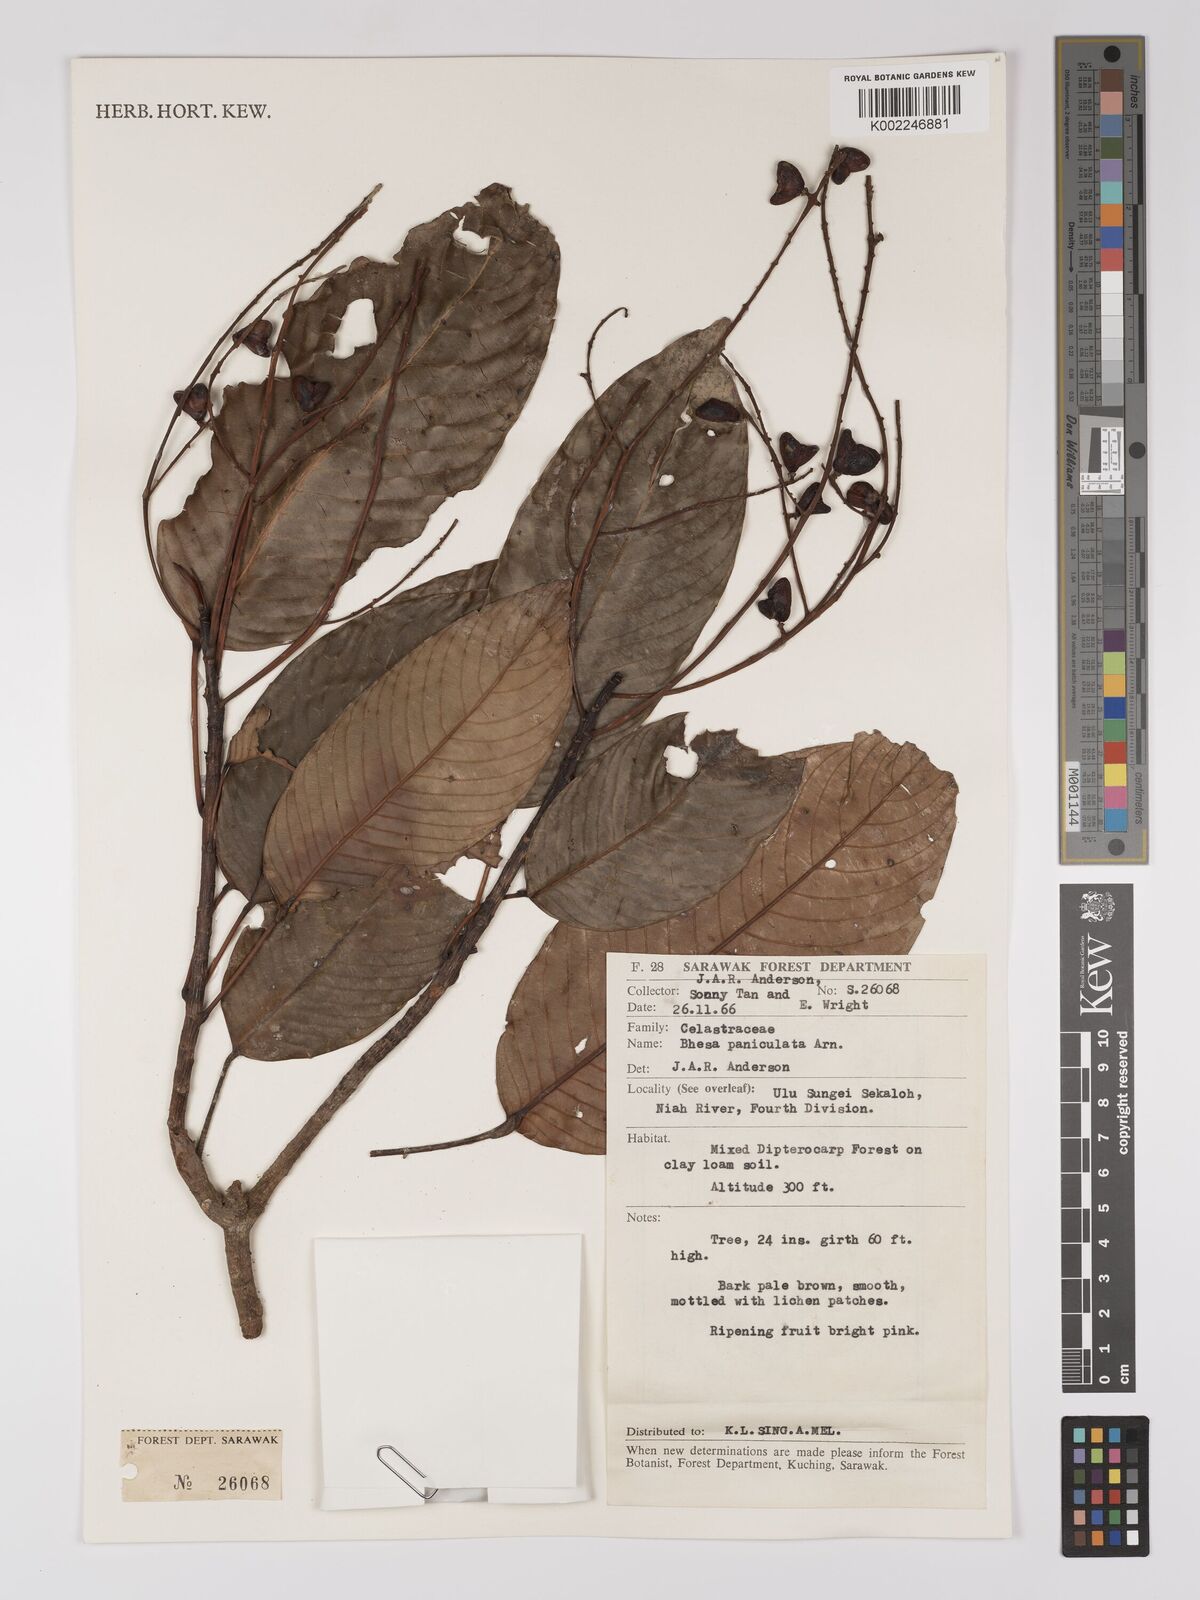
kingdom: Plantae
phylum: Tracheophyta
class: Magnoliopsida
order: Malpighiales
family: Centroplacaceae
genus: Bhesa
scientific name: Bhesa paniculata
